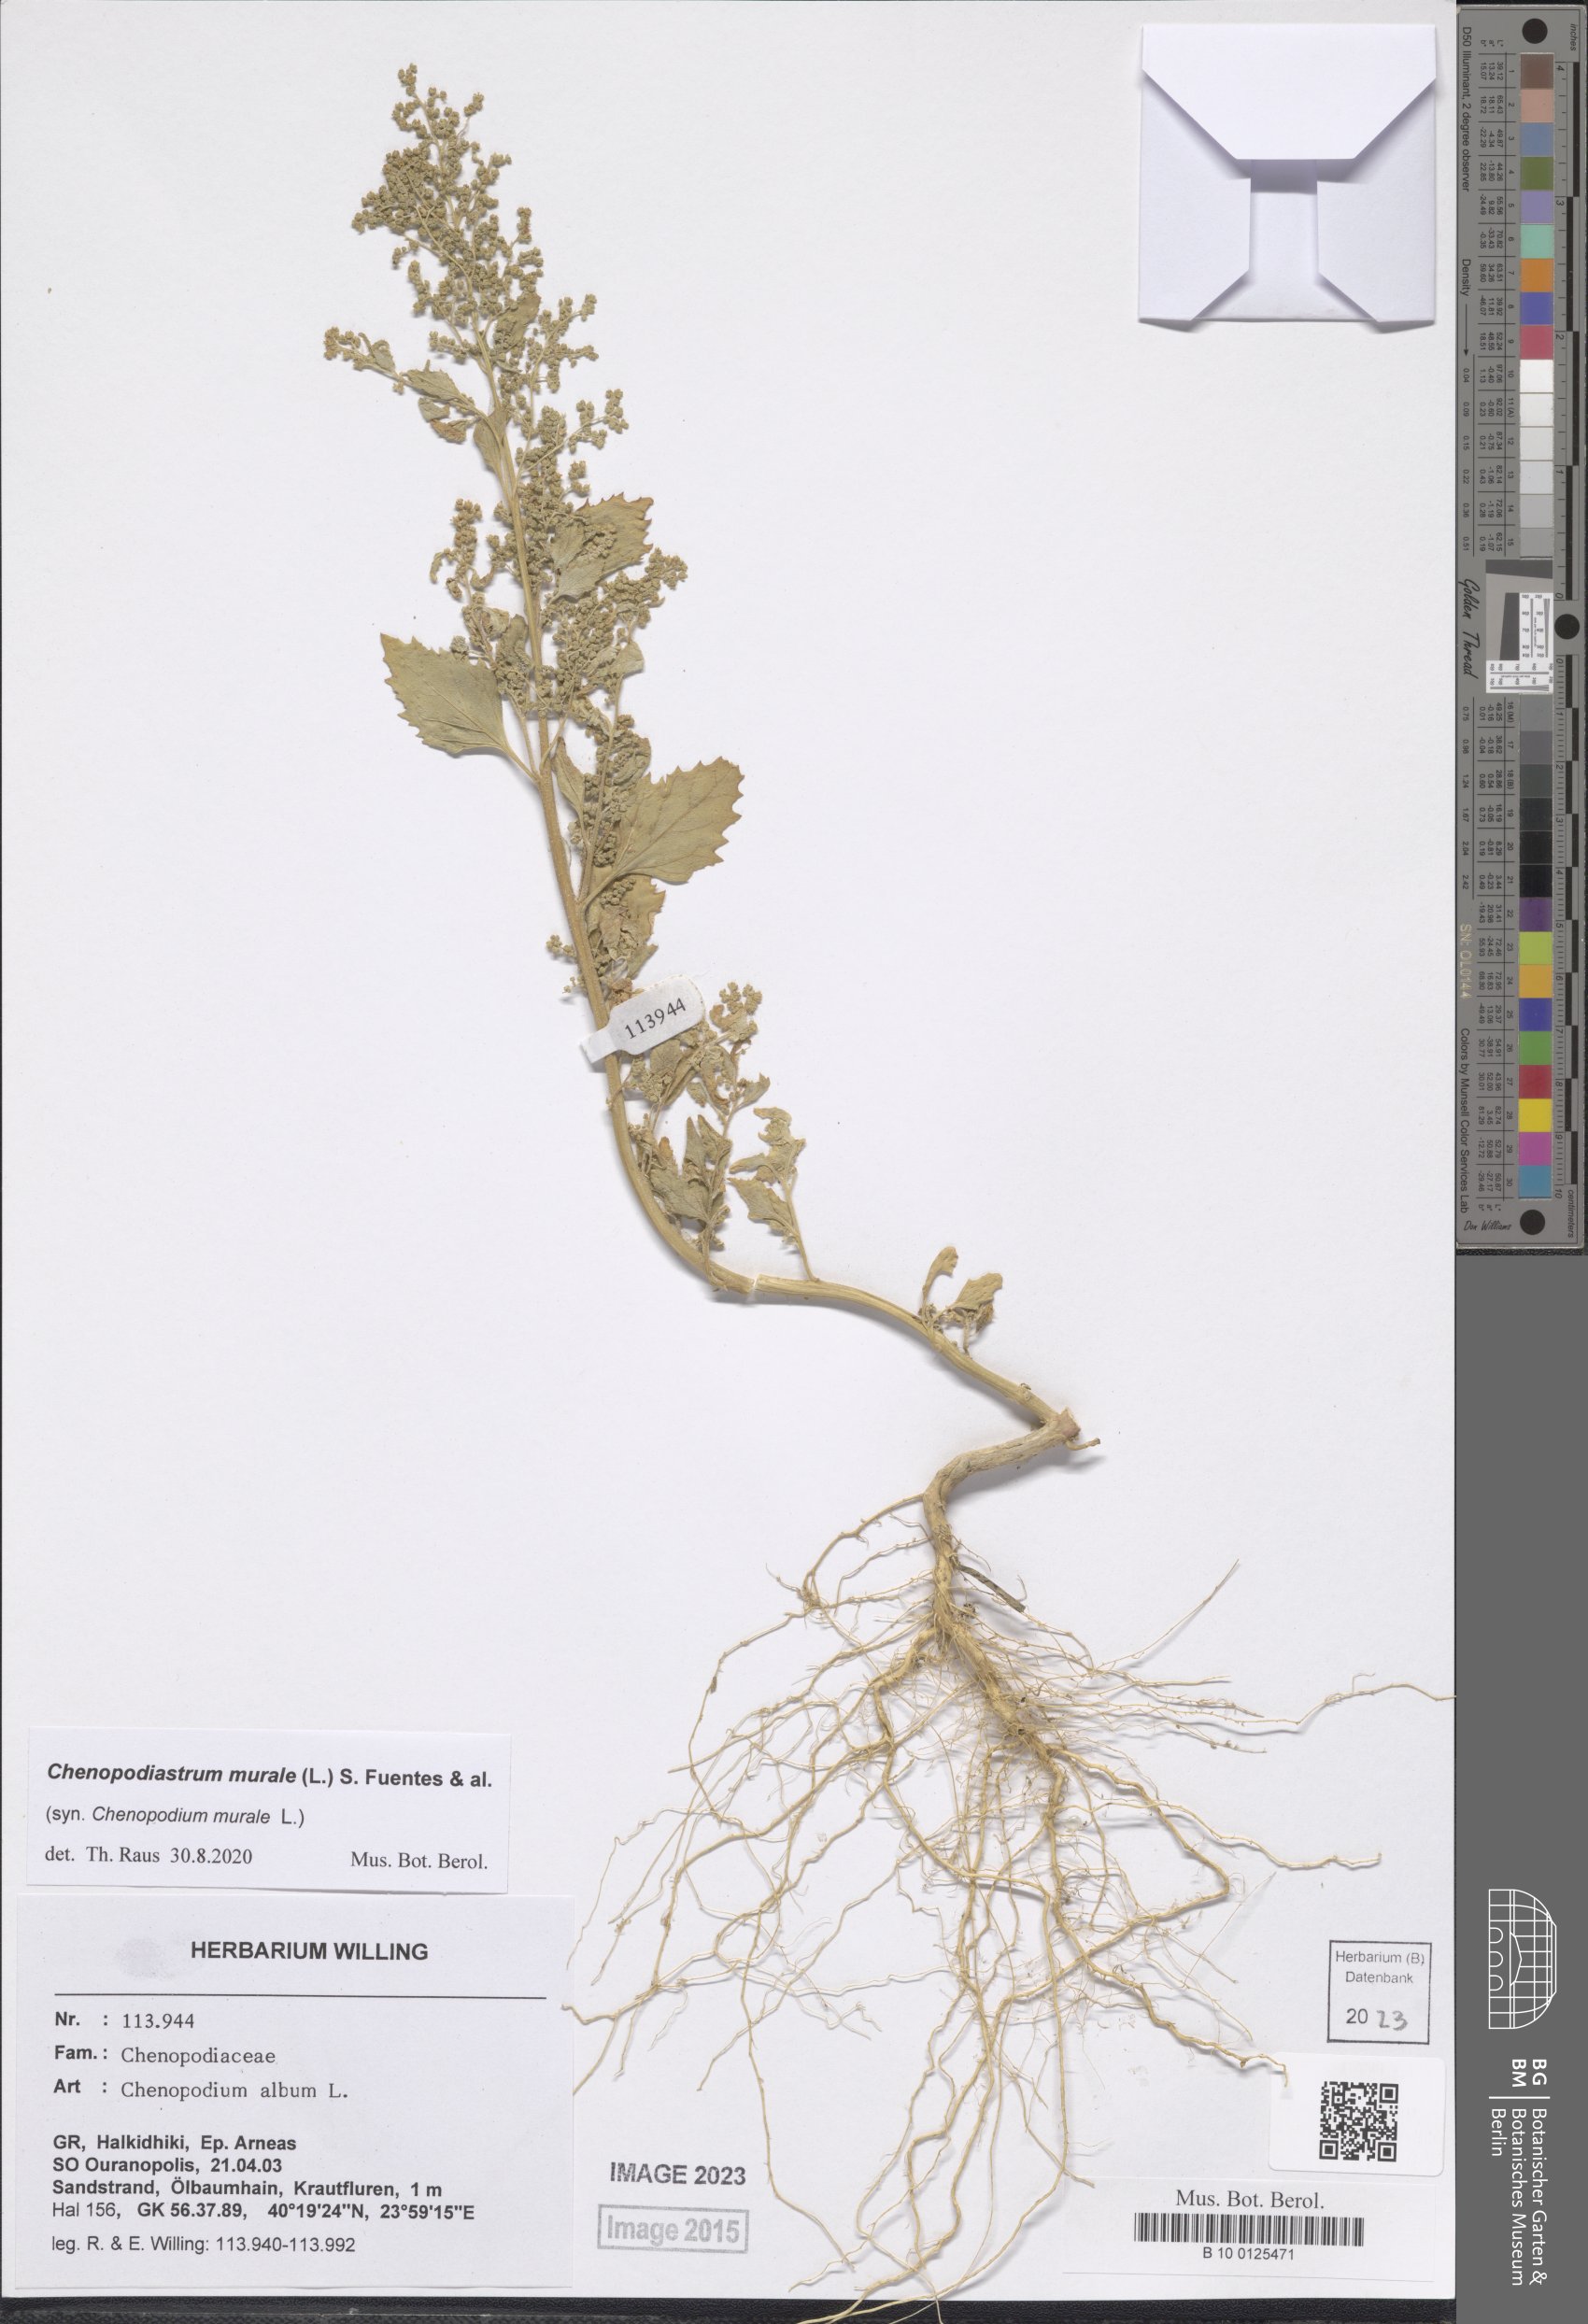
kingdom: Plantae
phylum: Tracheophyta
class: Magnoliopsida
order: Caryophyllales
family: Amaranthaceae
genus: Chenopodiastrum
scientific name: Chenopodiastrum murale
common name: Sowbane
